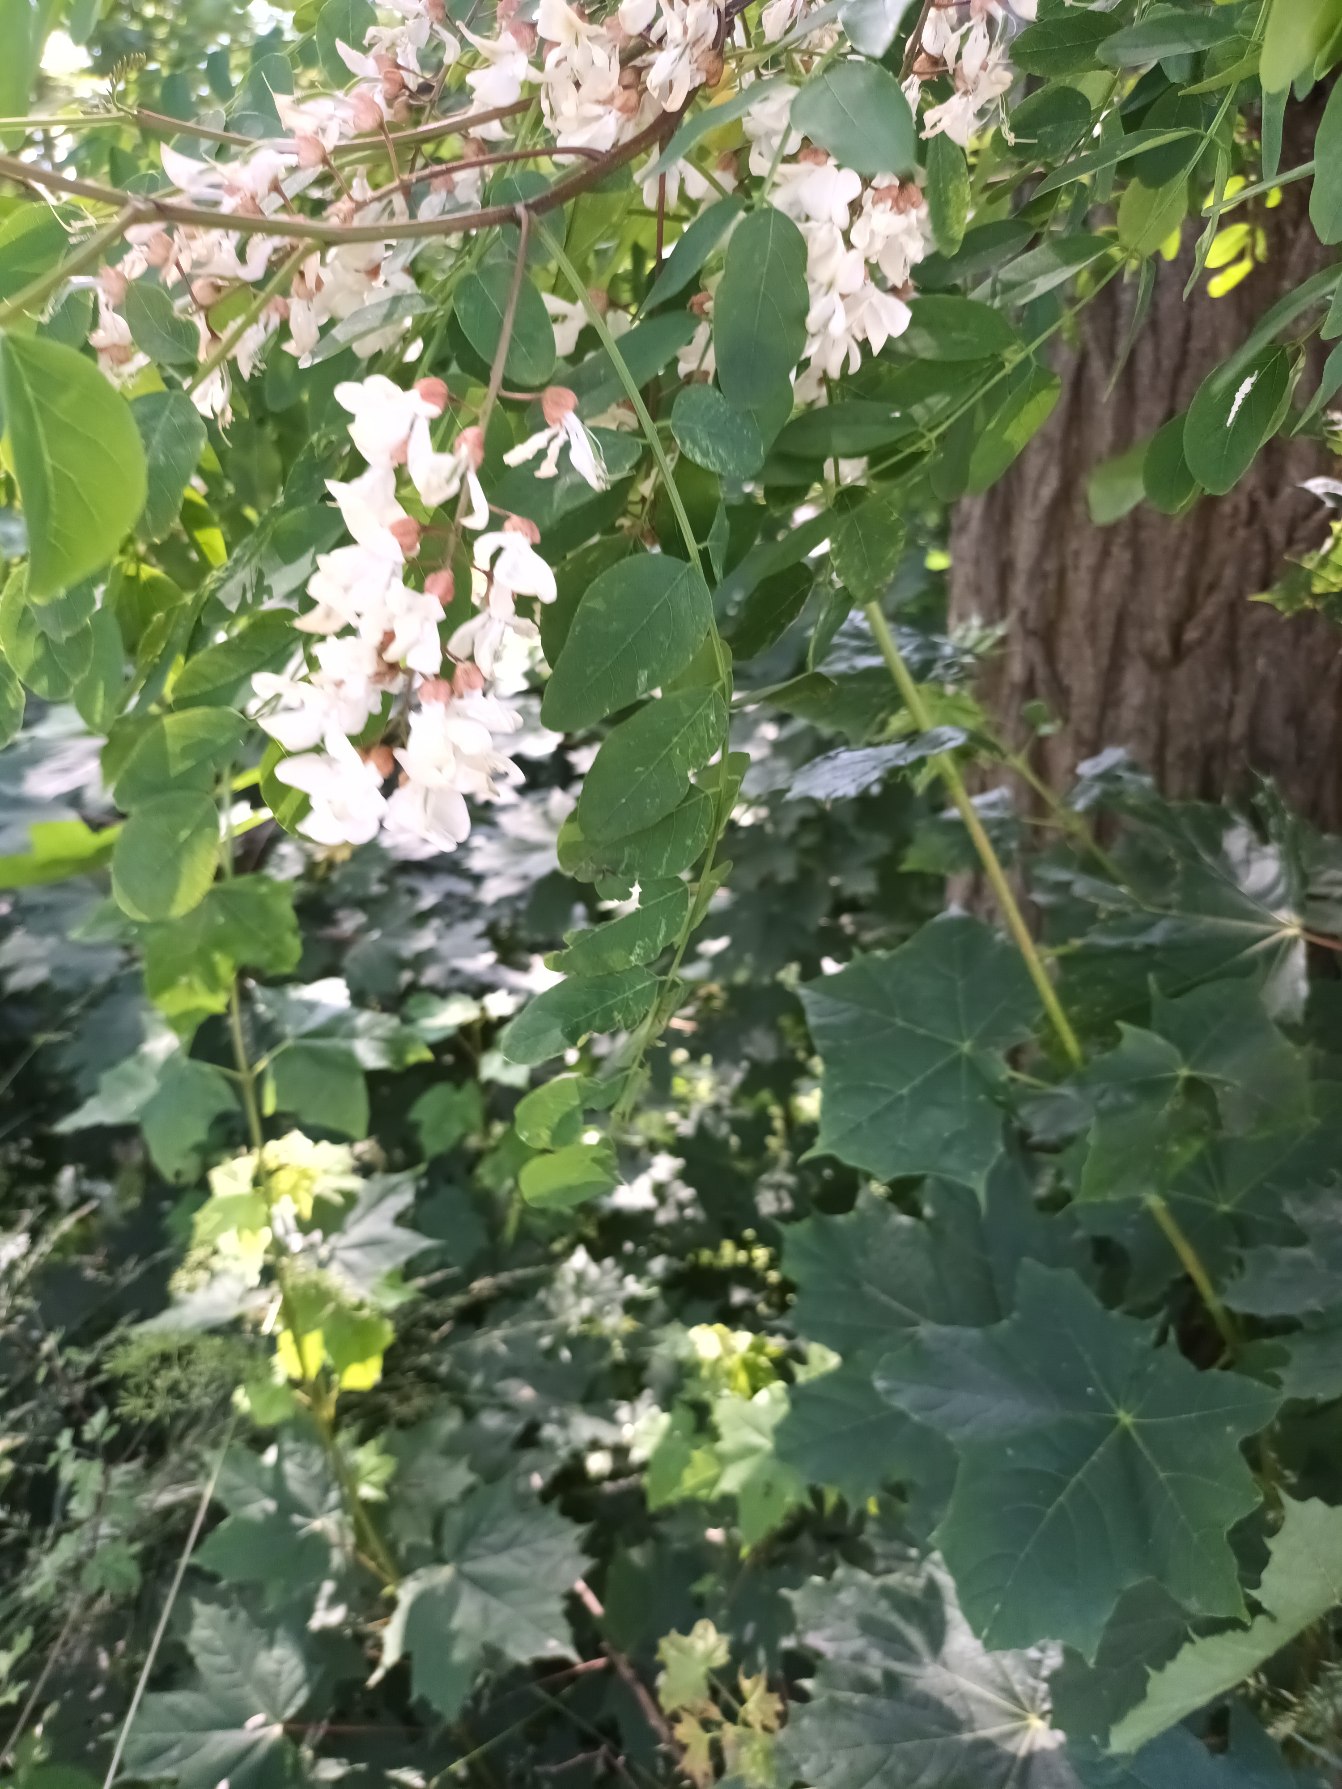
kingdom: Plantae
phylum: Tracheophyta
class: Magnoliopsida
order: Fabales
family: Fabaceae
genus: Robinia
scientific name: Robinia pseudoacacia
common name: Robinie
